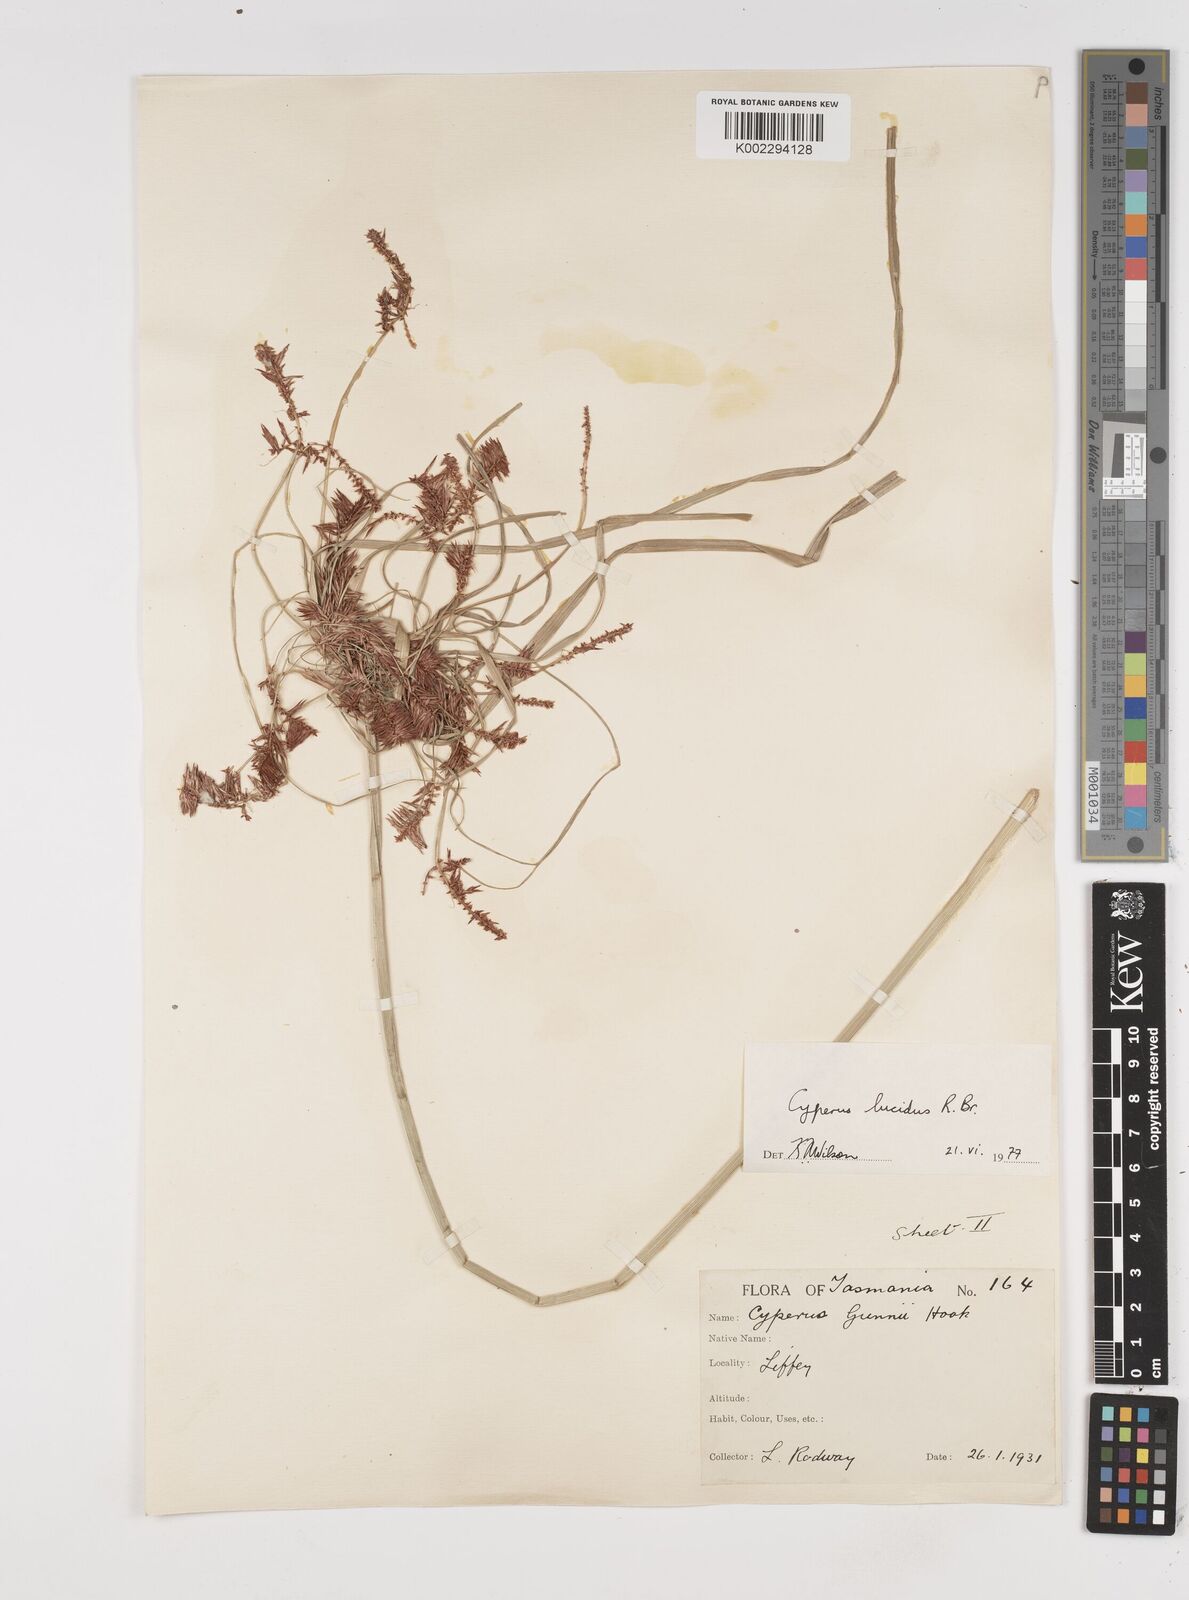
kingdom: Plantae
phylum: Tracheophyta
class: Liliopsida
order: Poales
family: Cyperaceae
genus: Cyperus
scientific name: Cyperus lucidus
